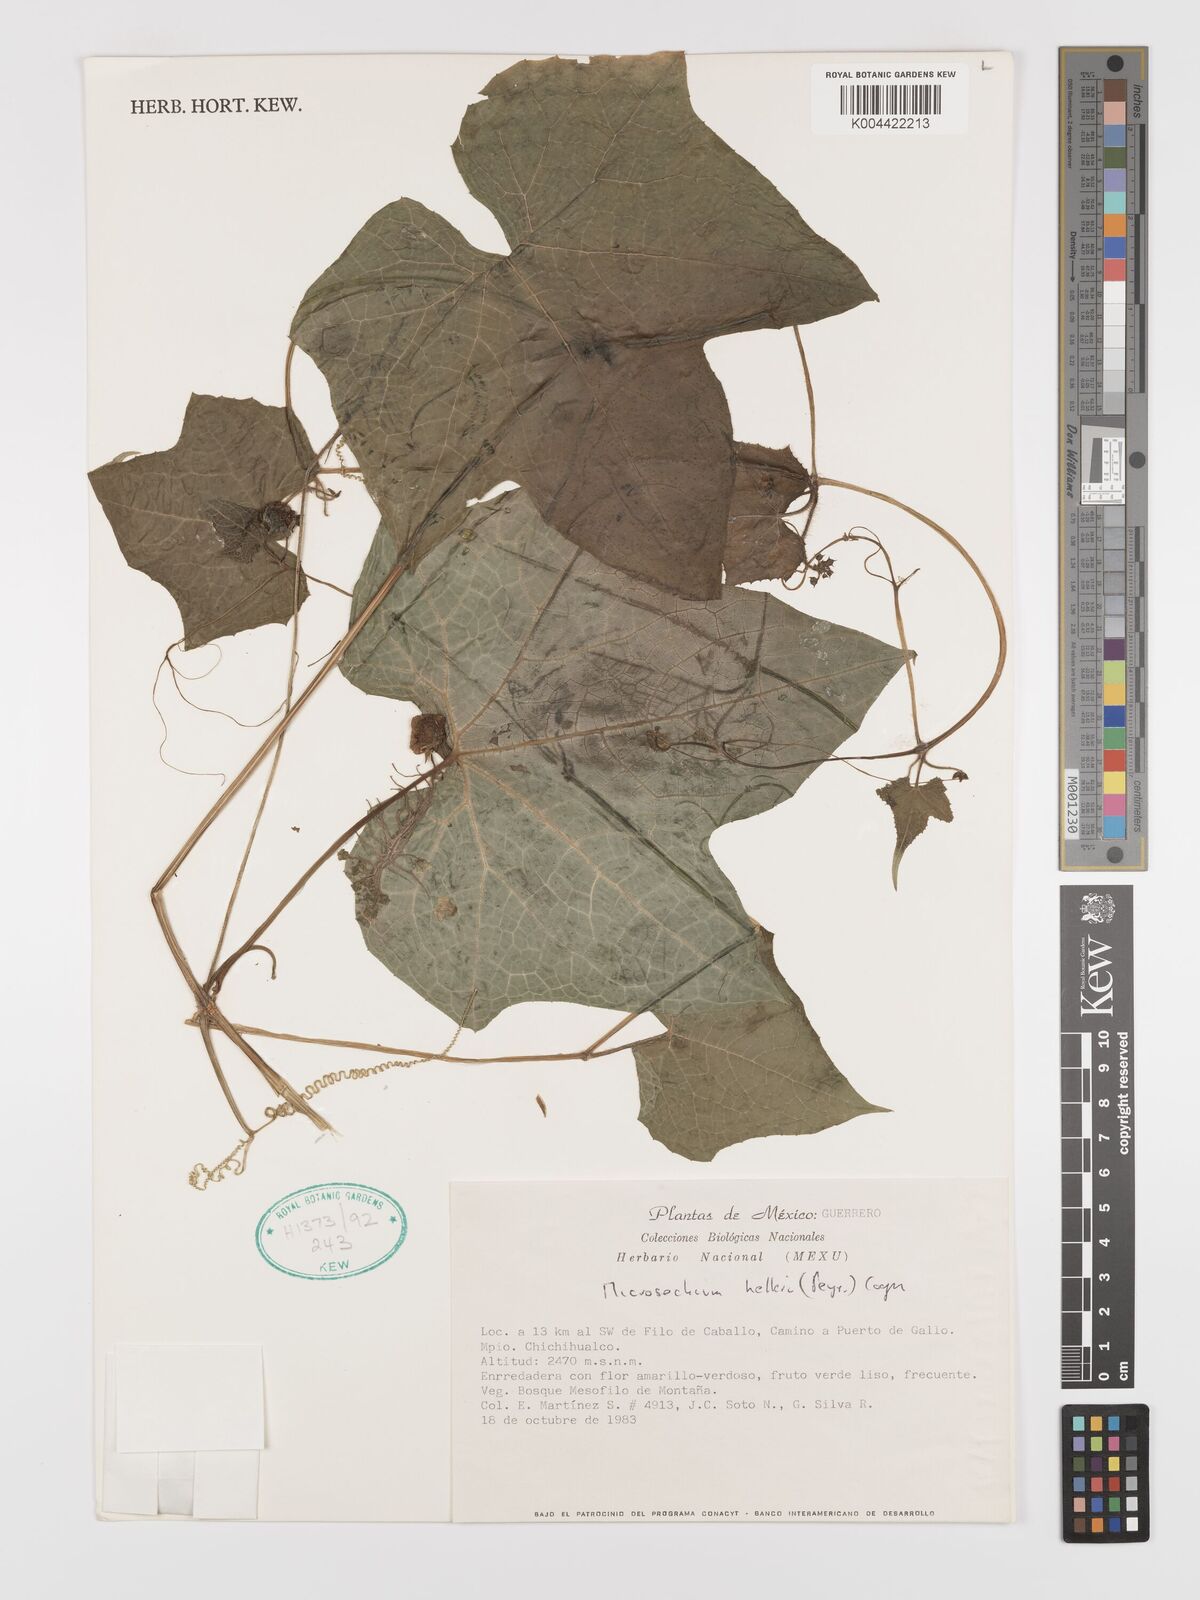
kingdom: Plantae
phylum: Tracheophyta
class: Magnoliopsida
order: Cucurbitales
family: Cucurbitaceae
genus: Microsechium
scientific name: Microsechium palmatum
